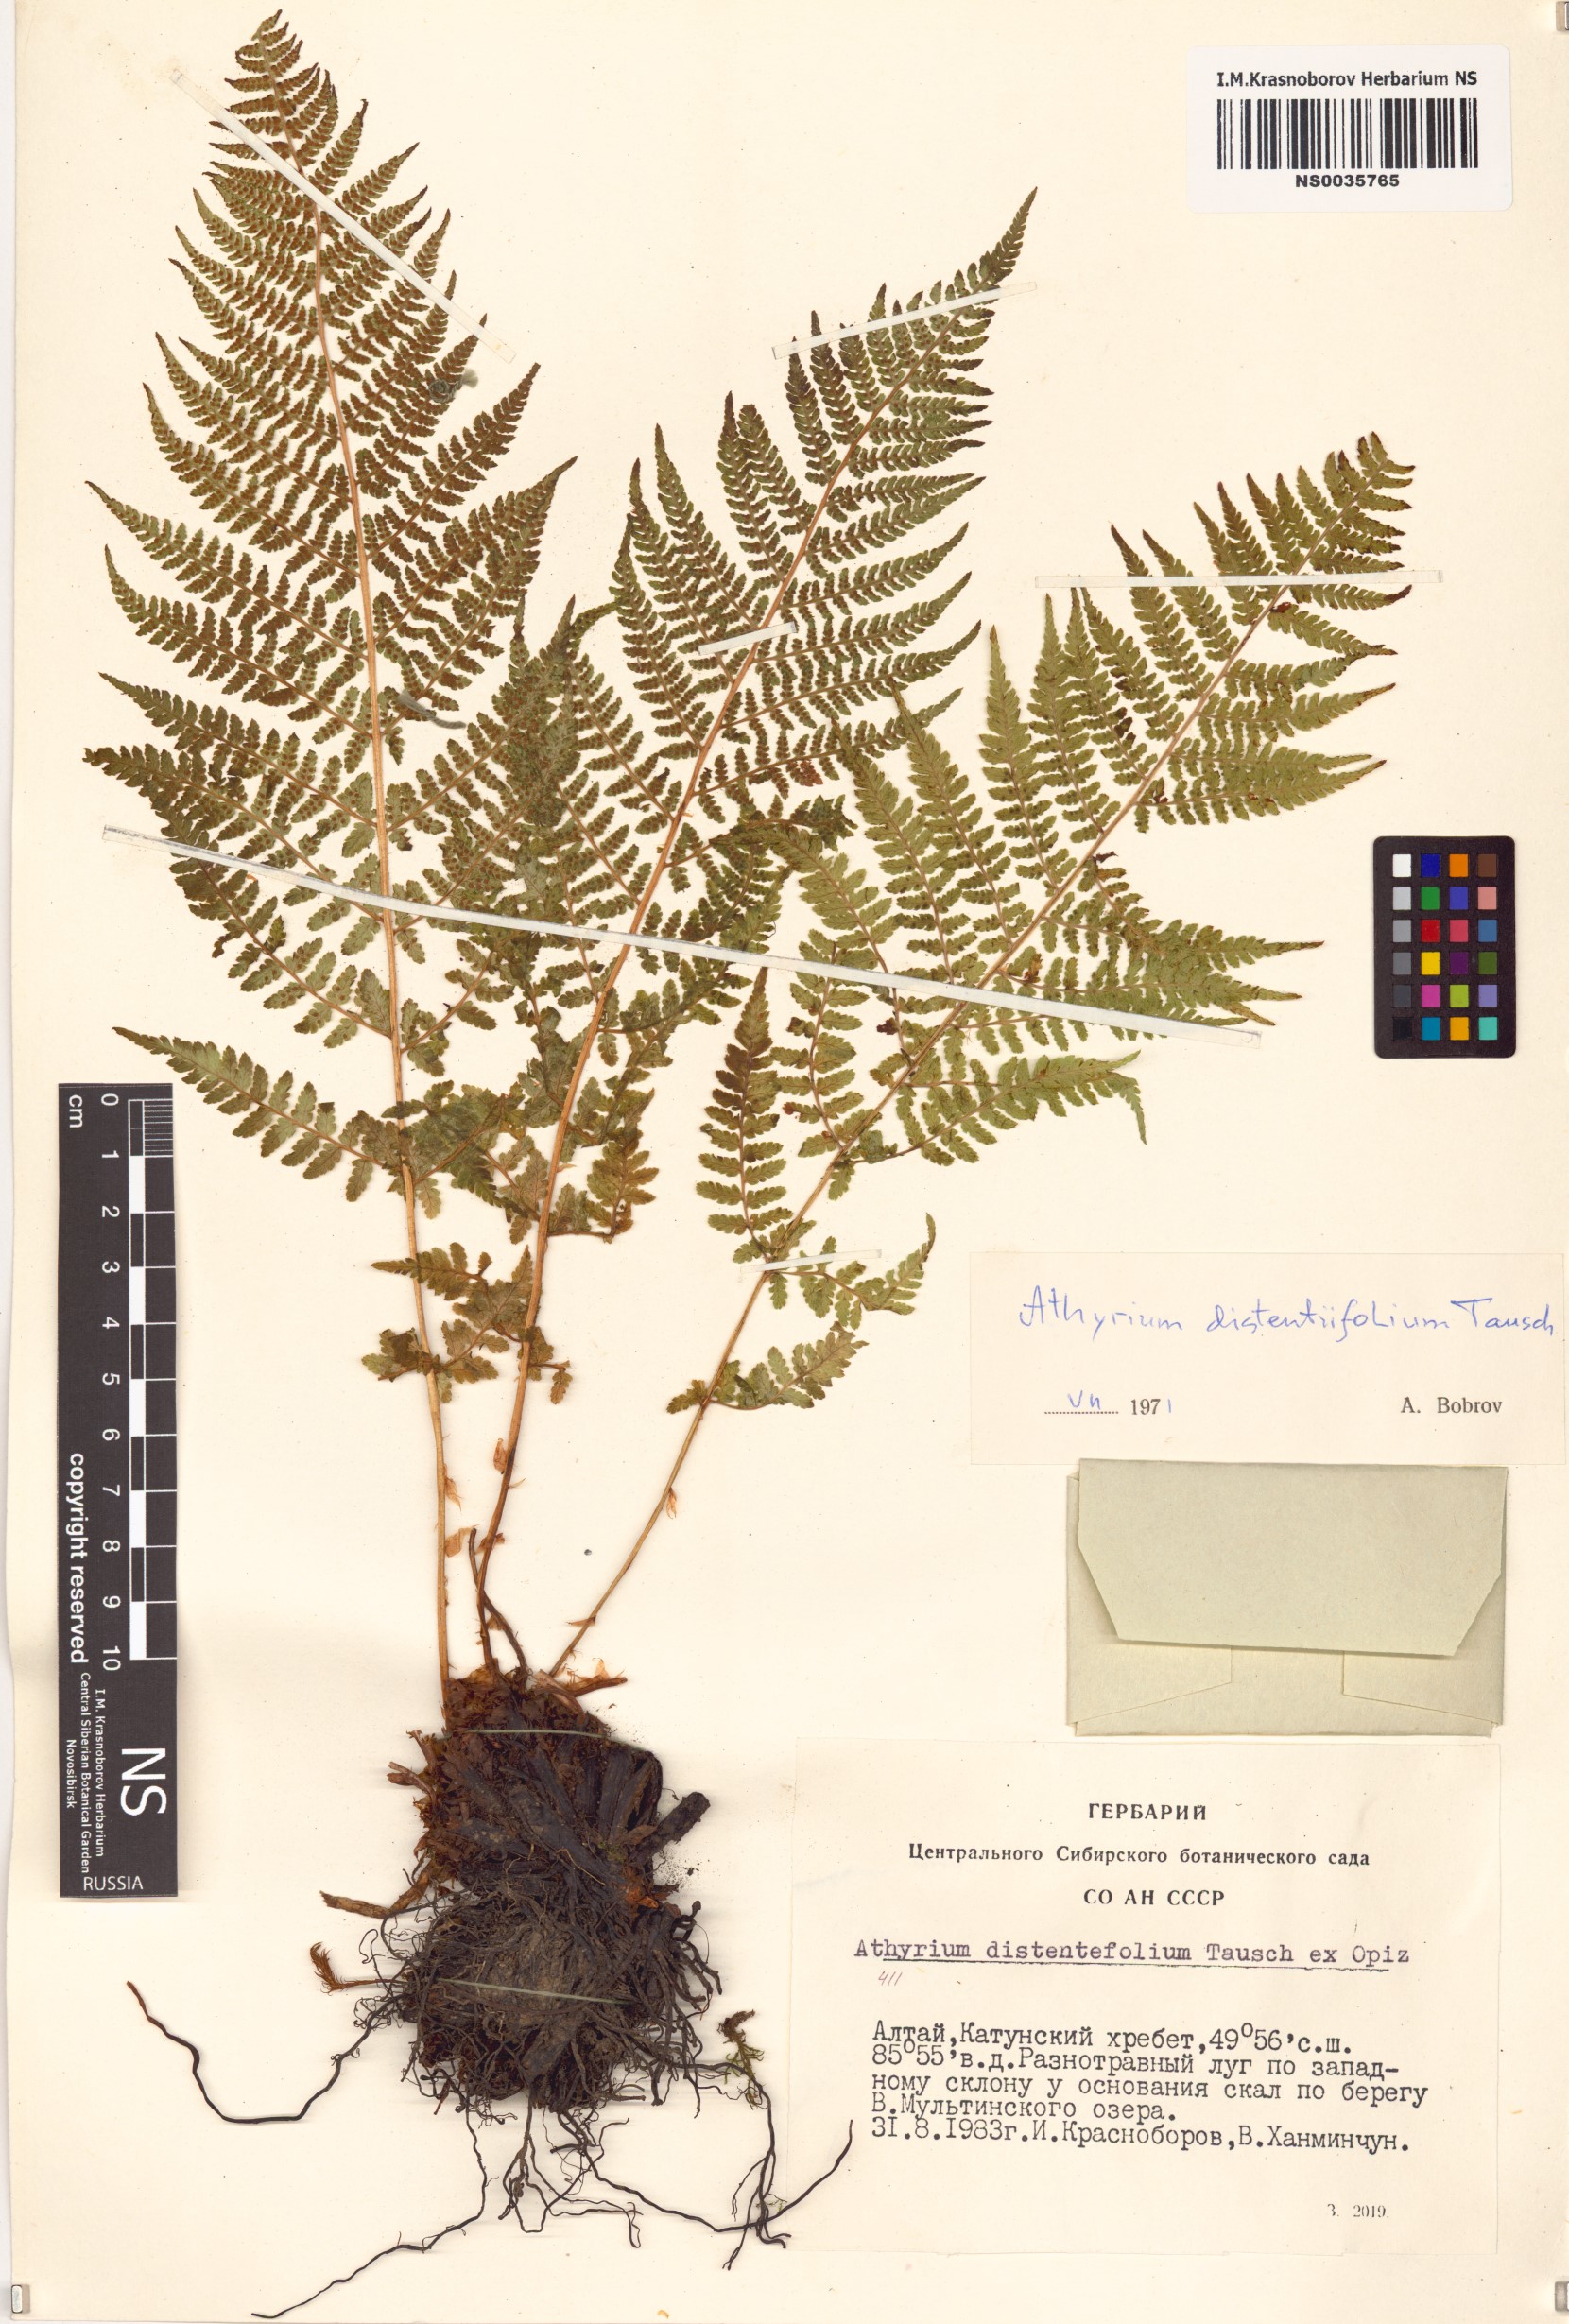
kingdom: Plantae
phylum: Tracheophyta
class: Polypodiopsida
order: Polypodiales
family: Athyriaceae
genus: Pseudathyrium
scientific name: Pseudathyrium alpestre
